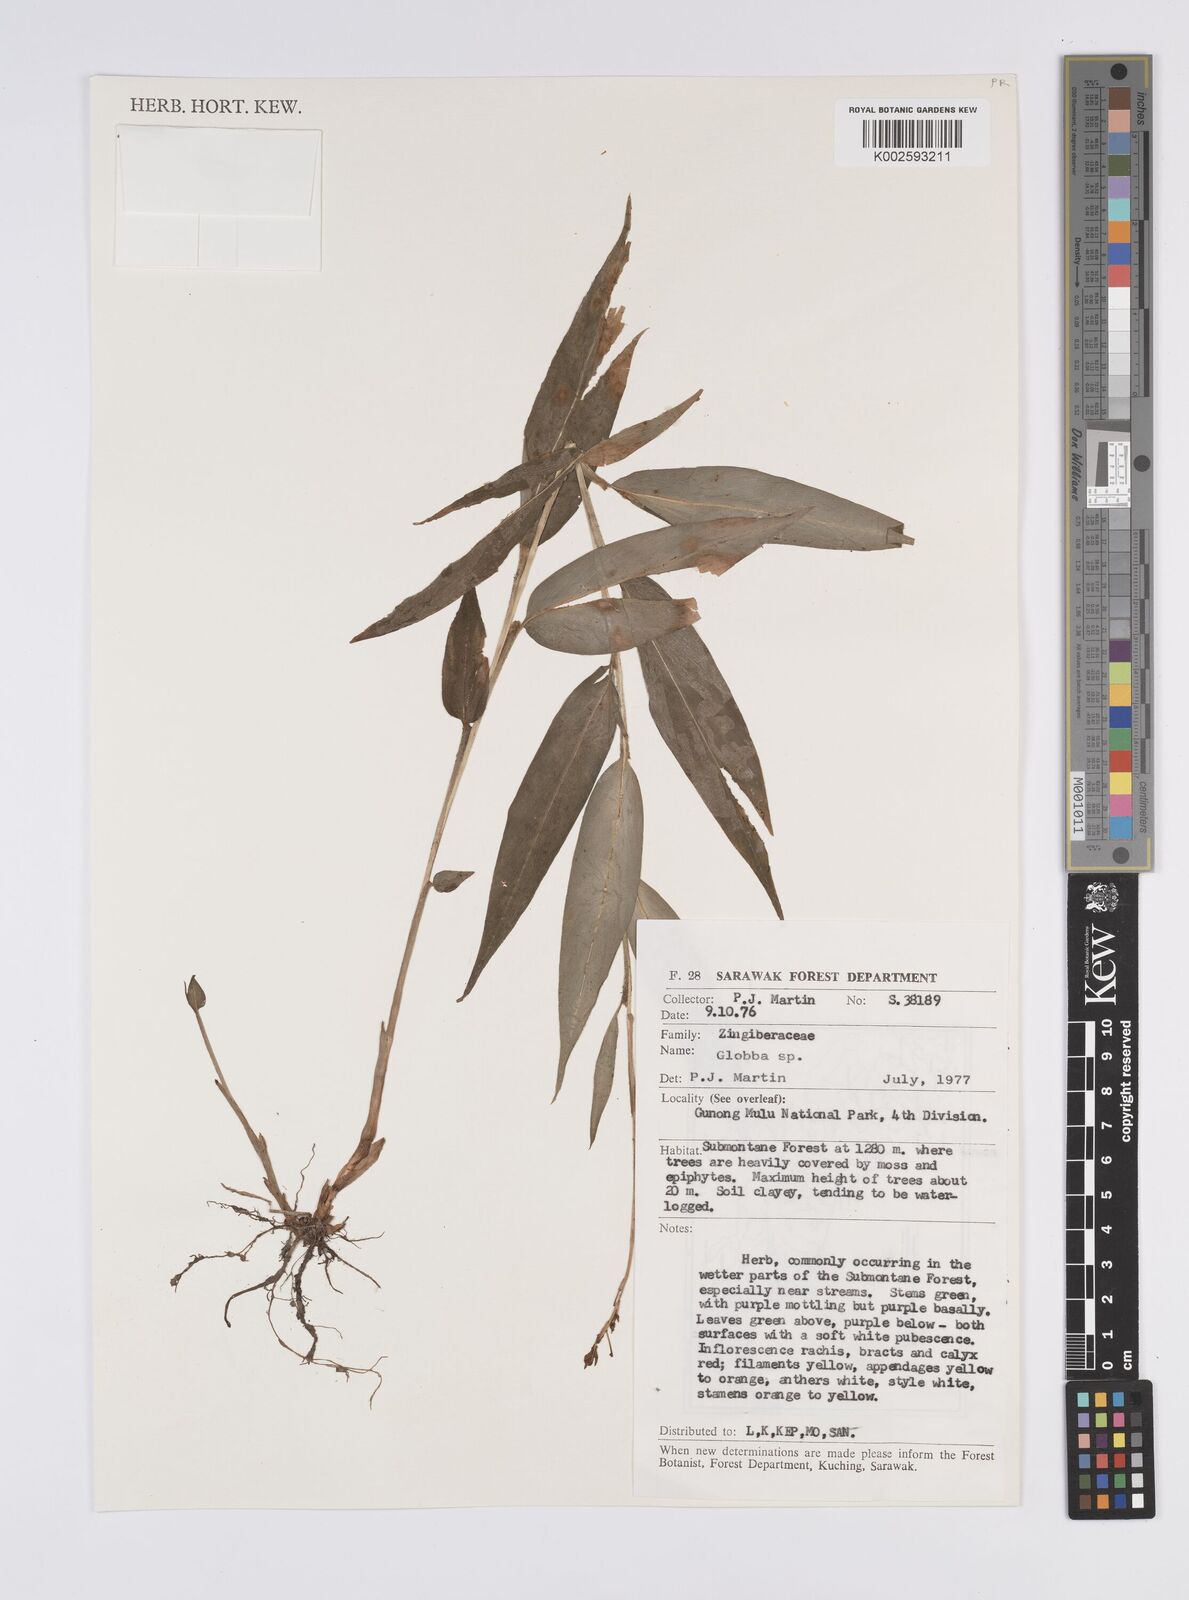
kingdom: Plantae
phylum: Tracheophyta
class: Liliopsida
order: Zingiberales
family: Zingiberaceae
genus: Globba
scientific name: Globba
